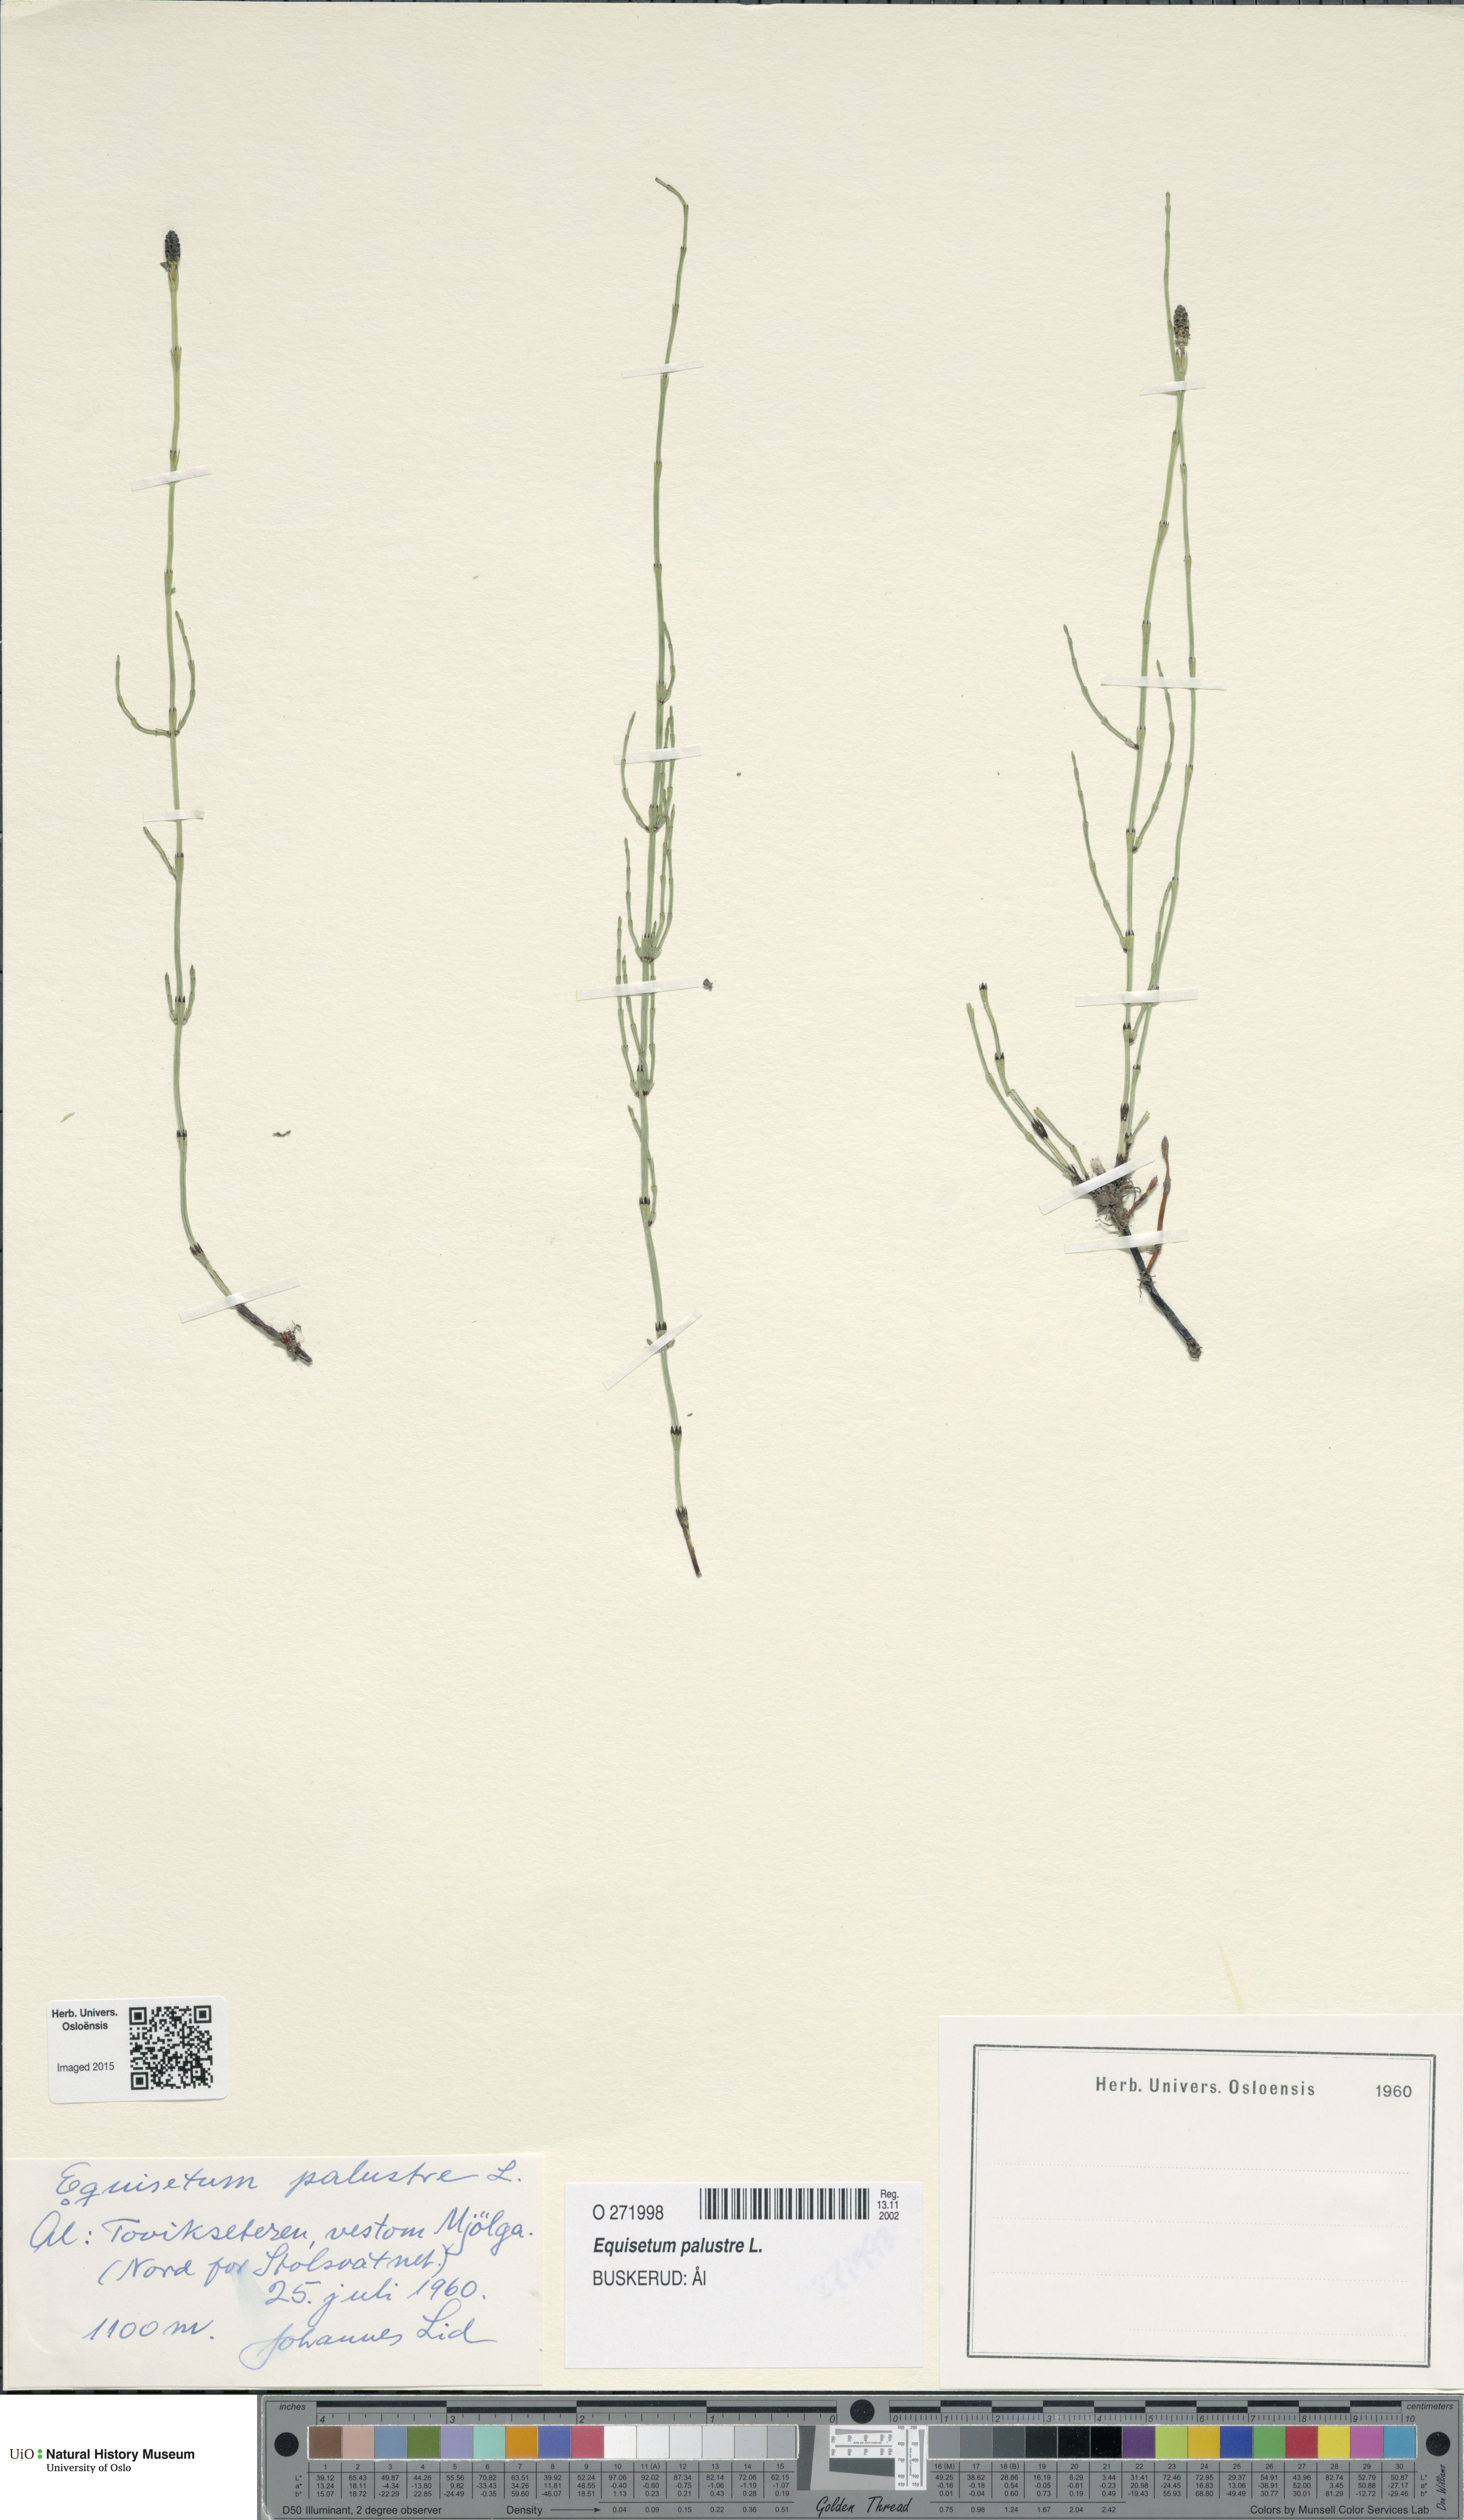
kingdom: Plantae
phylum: Tracheophyta
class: Polypodiopsida
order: Equisetales
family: Equisetaceae
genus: Equisetum
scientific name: Equisetum palustre
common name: Marsh horsetail
